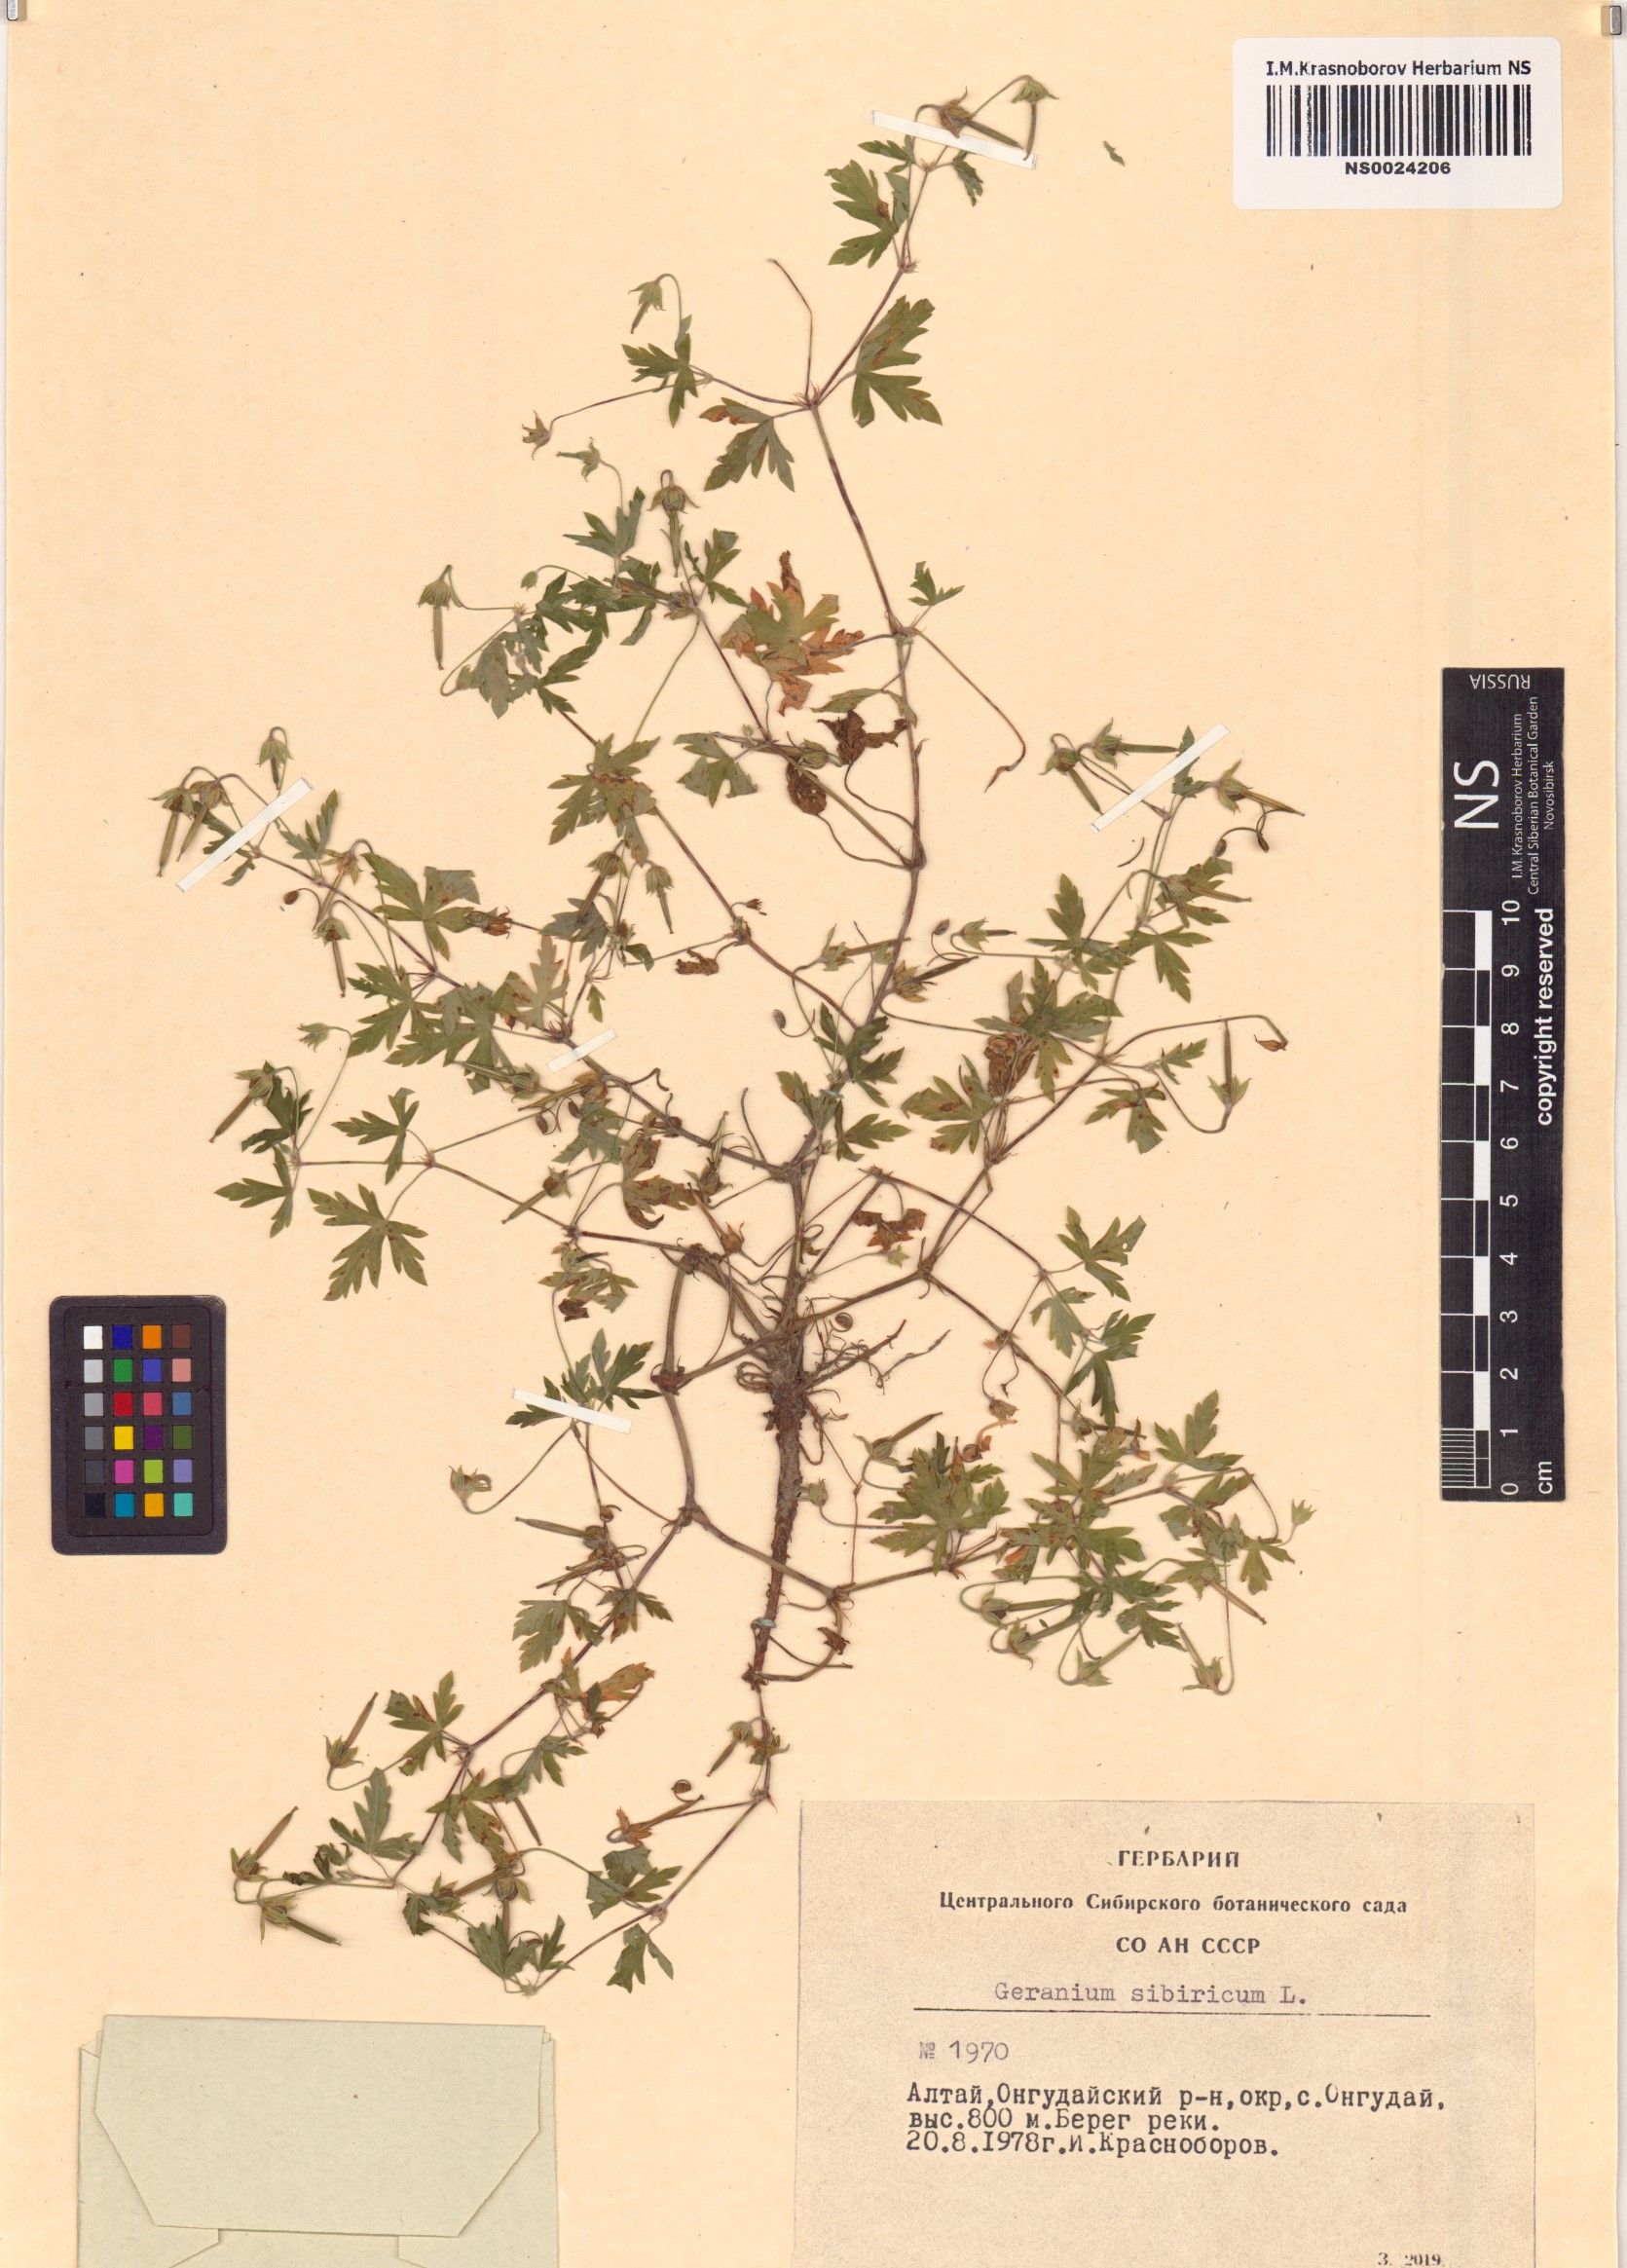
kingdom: Plantae
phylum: Tracheophyta
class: Magnoliopsida
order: Geraniales
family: Geraniaceae
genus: Geranium
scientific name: Geranium sibiricum
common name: Siberian crane's-bill
